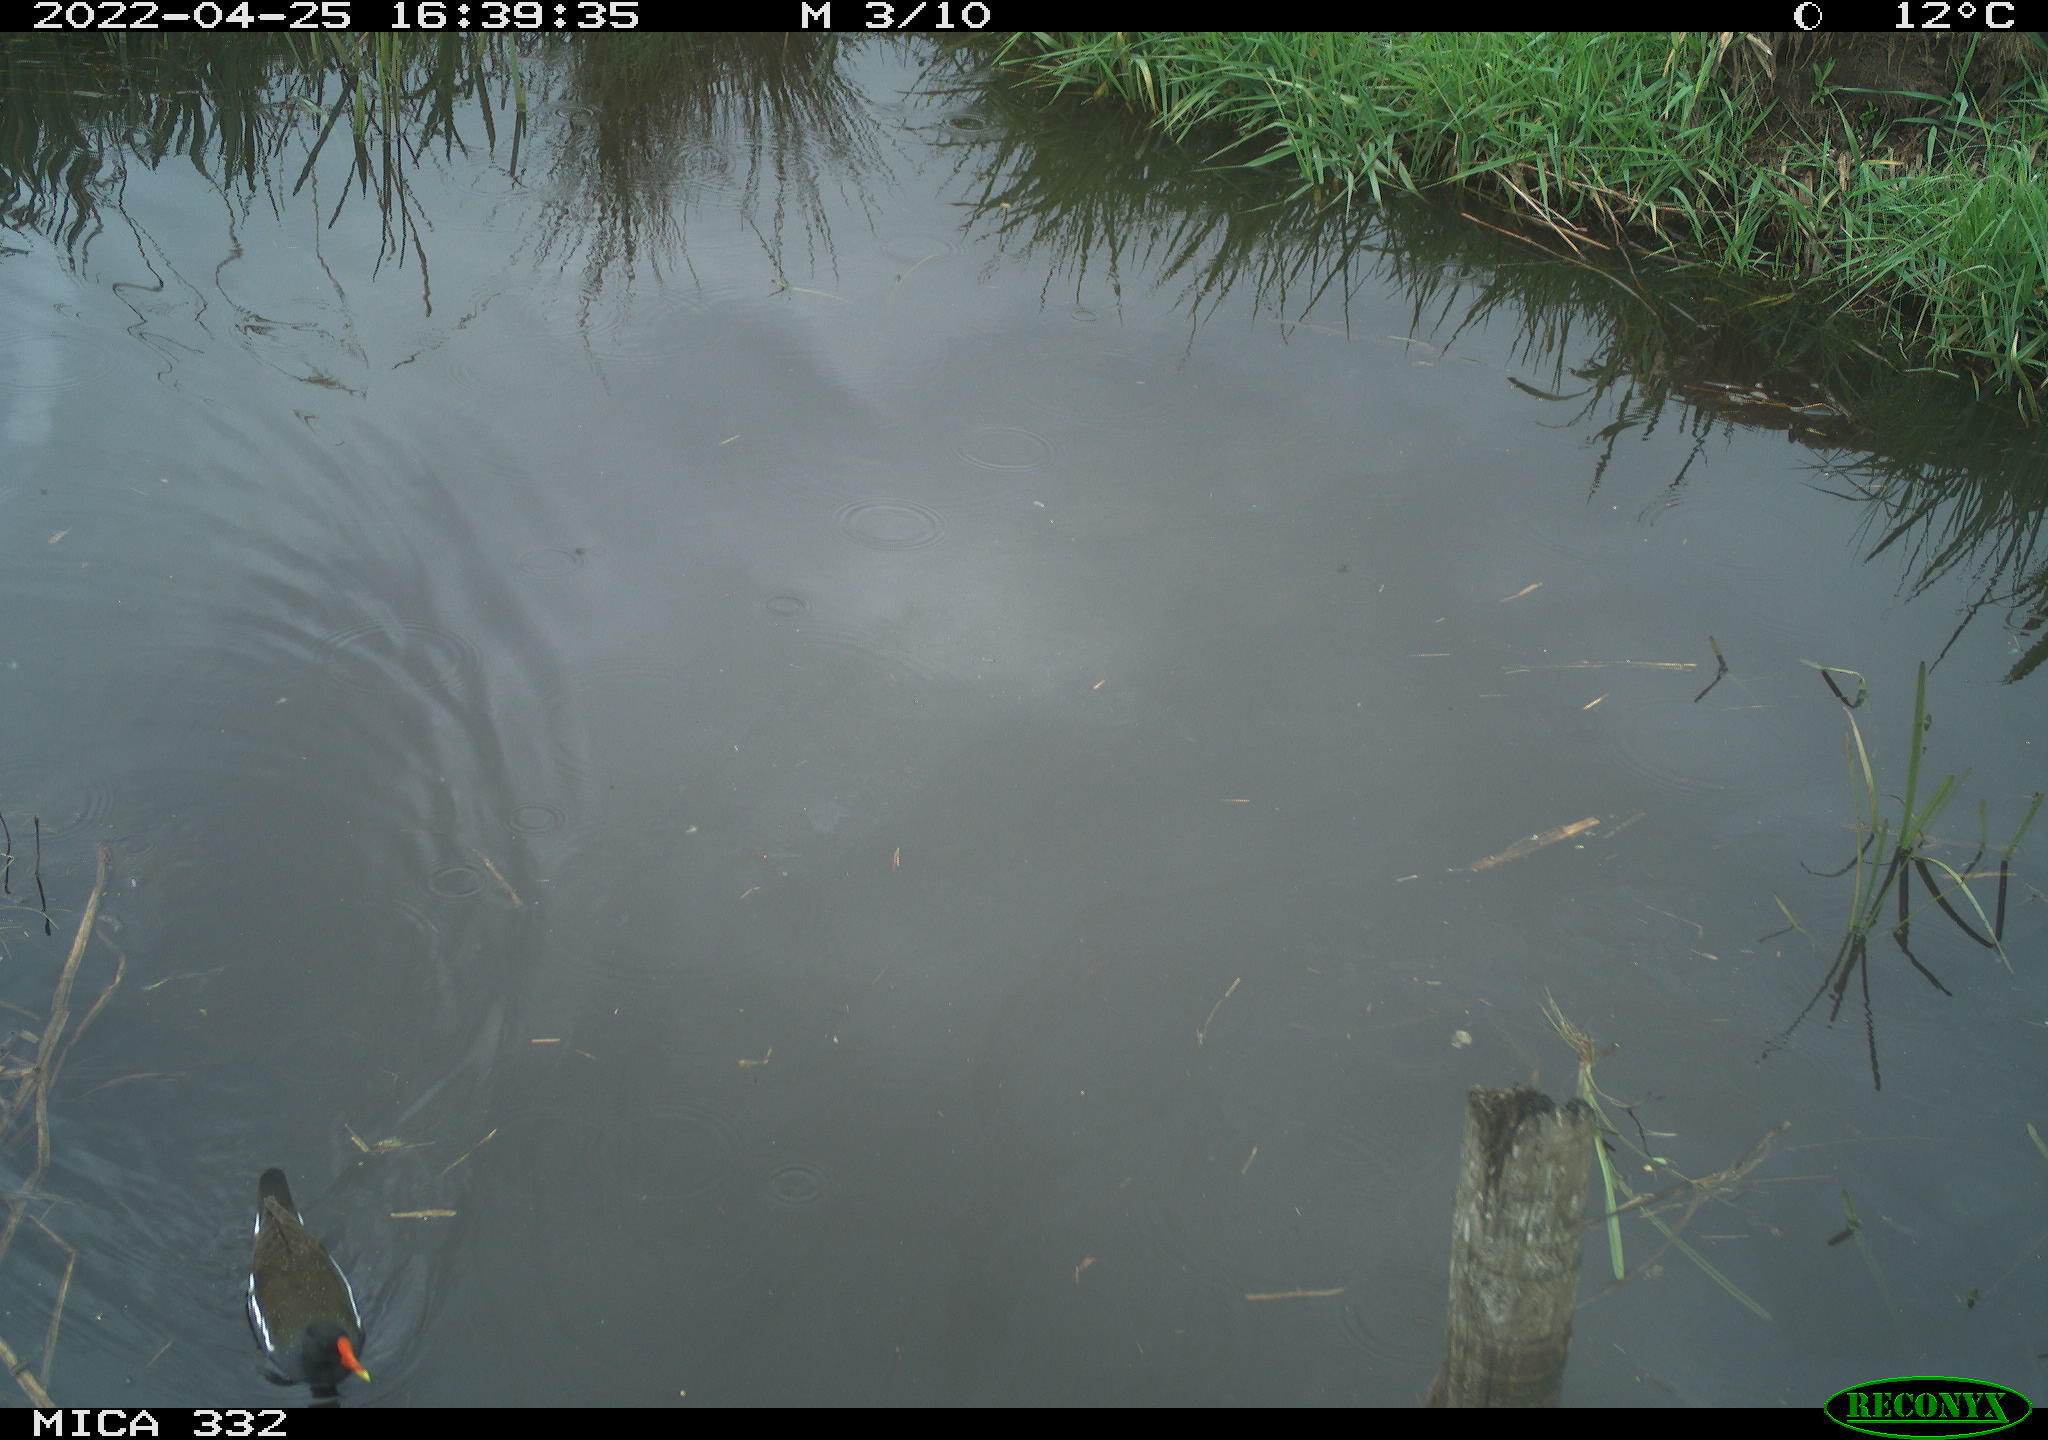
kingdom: Animalia
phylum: Chordata
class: Aves
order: Gruiformes
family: Rallidae
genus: Gallinula
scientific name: Gallinula chloropus
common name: Common moorhen
